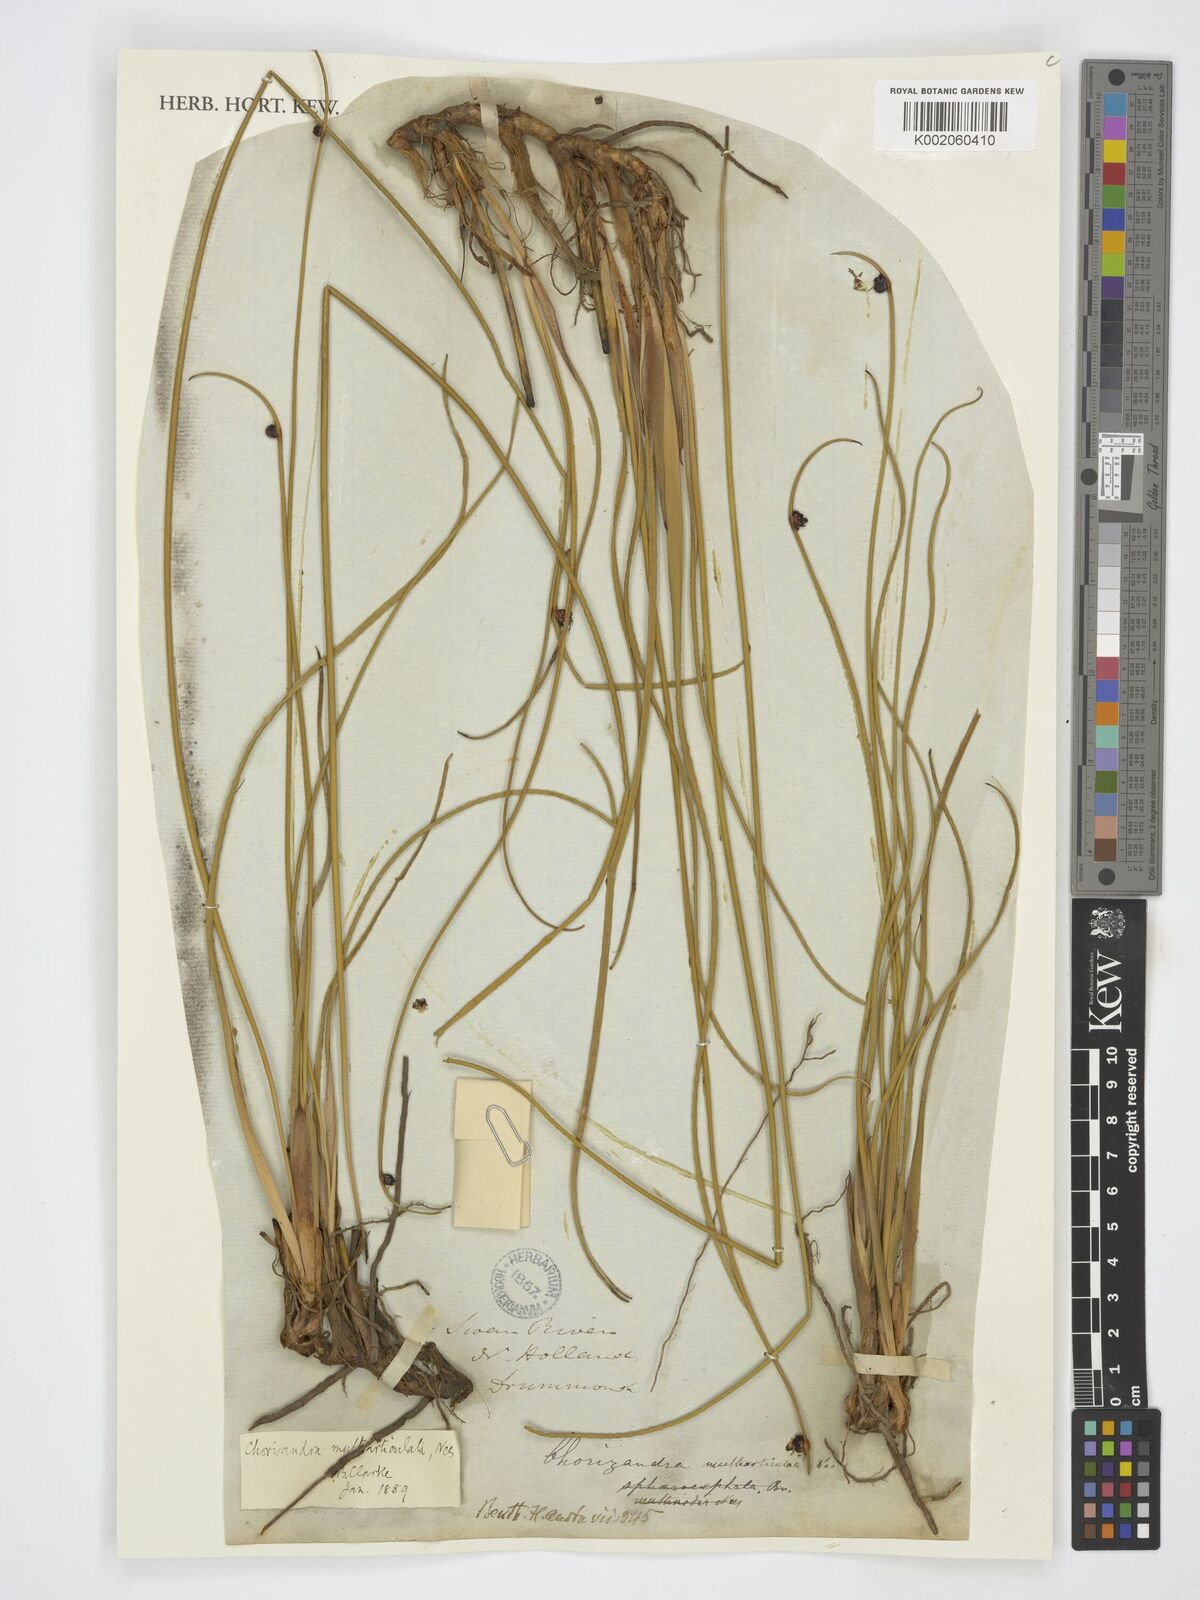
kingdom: Plantae
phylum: Tracheophyta
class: Liliopsida
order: Poales
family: Cyperaceae
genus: Chorizandra
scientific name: Chorizandra multiarticulata
